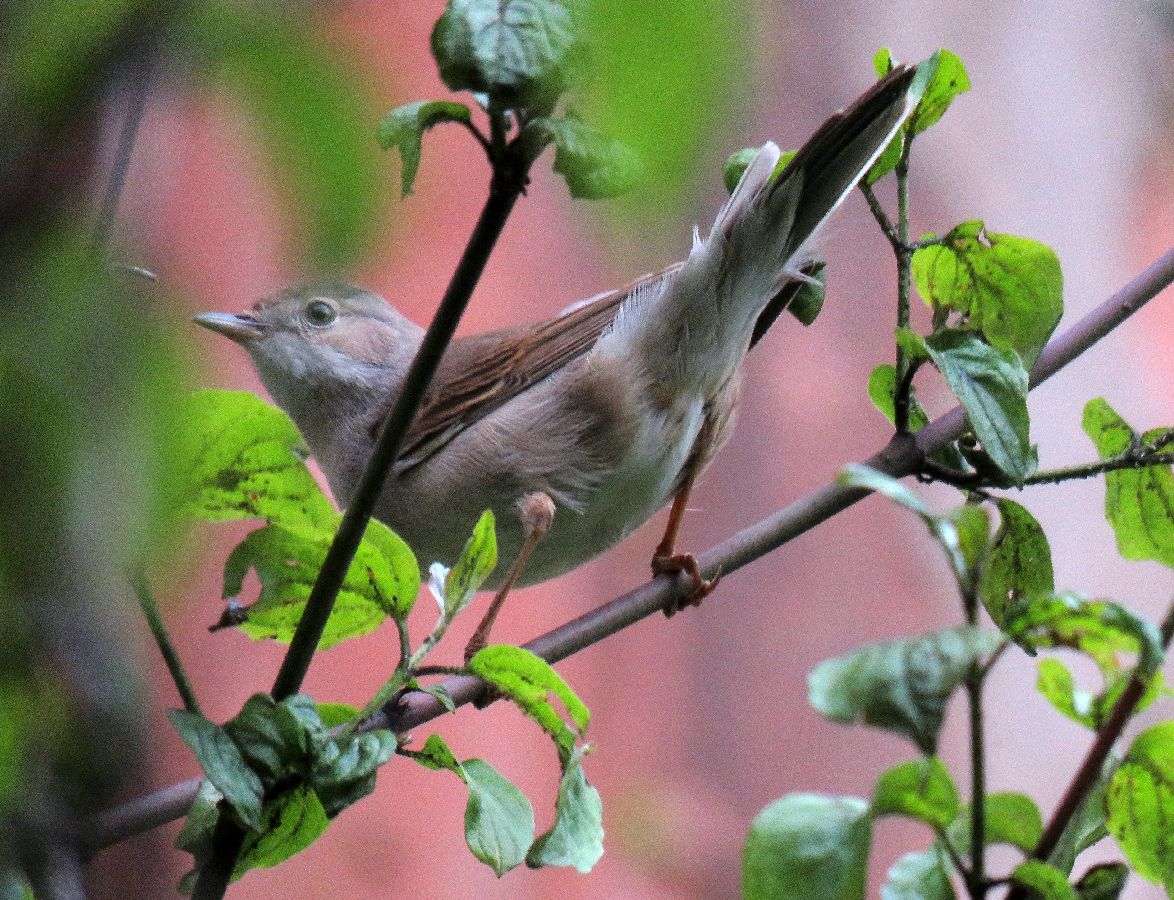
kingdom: Animalia
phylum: Chordata
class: Aves
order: Passeriformes
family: Sylviidae
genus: Sylvia
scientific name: Sylvia communis
